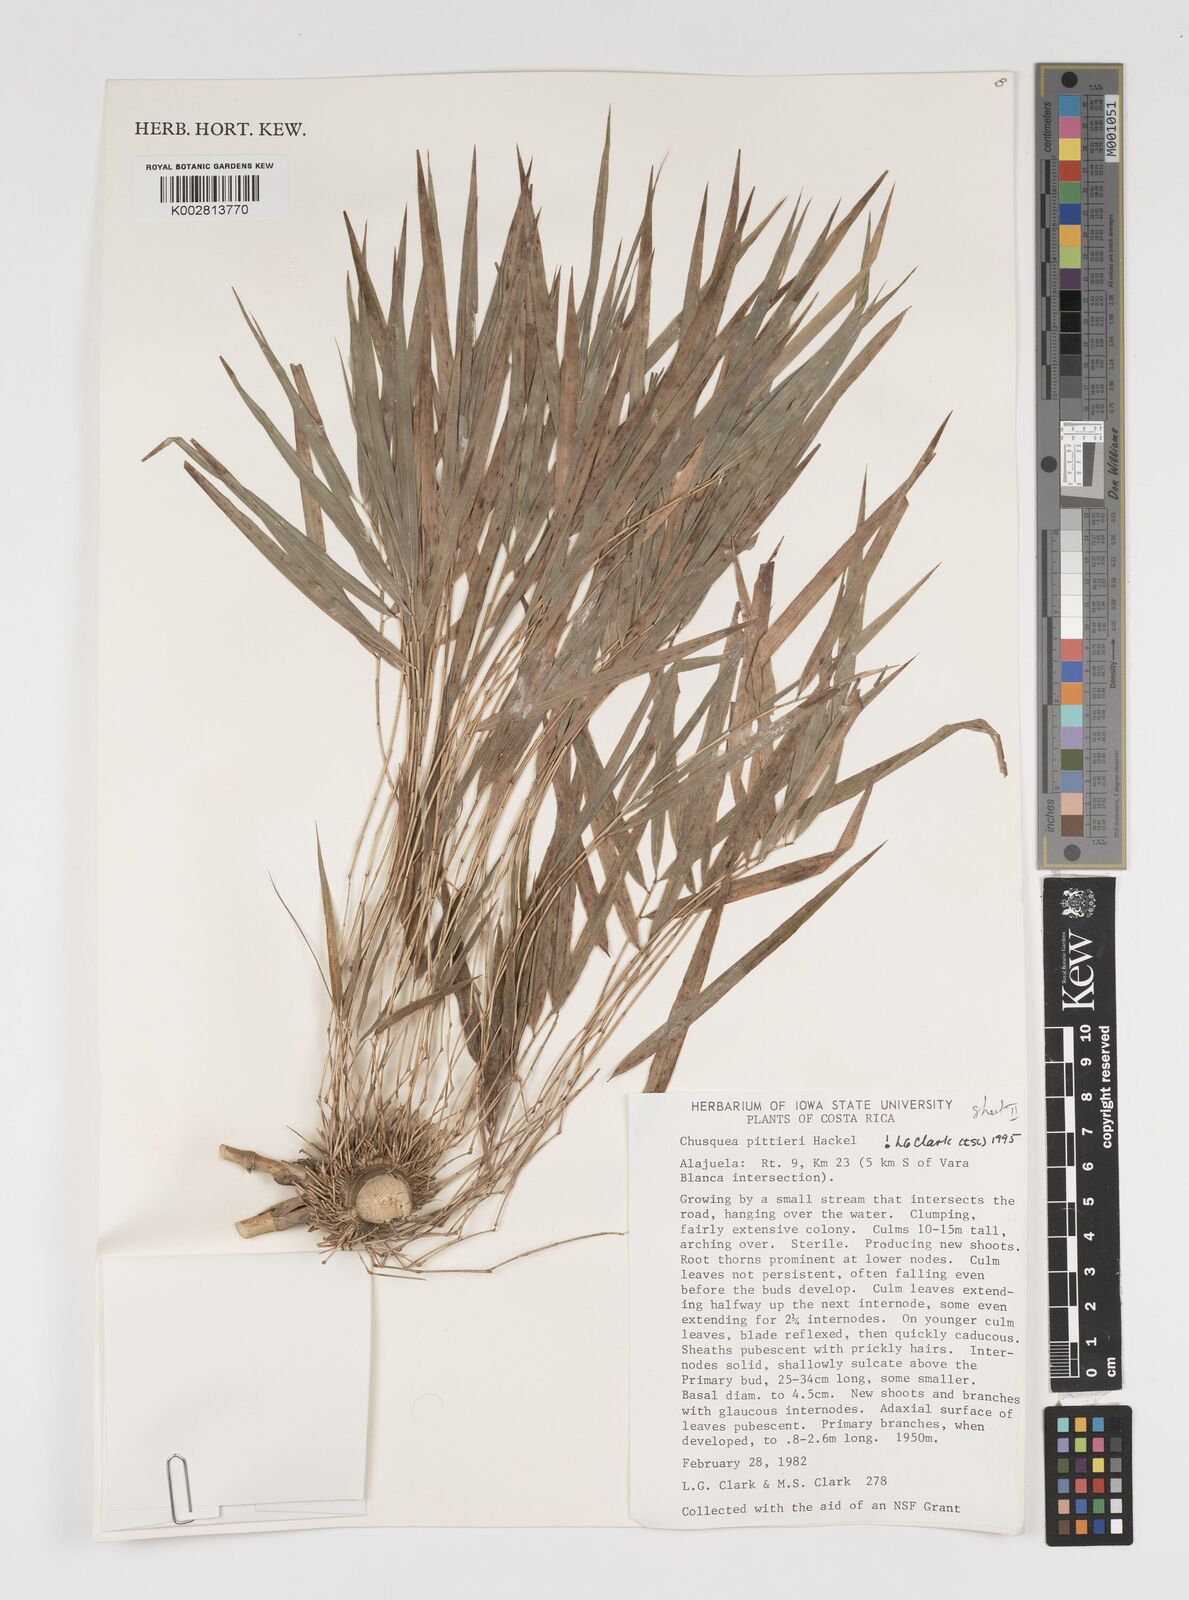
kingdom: Plantae
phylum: Tracheophyta
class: Liliopsida
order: Poales
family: Poaceae
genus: Chusquea
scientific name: Chusquea pittieri
